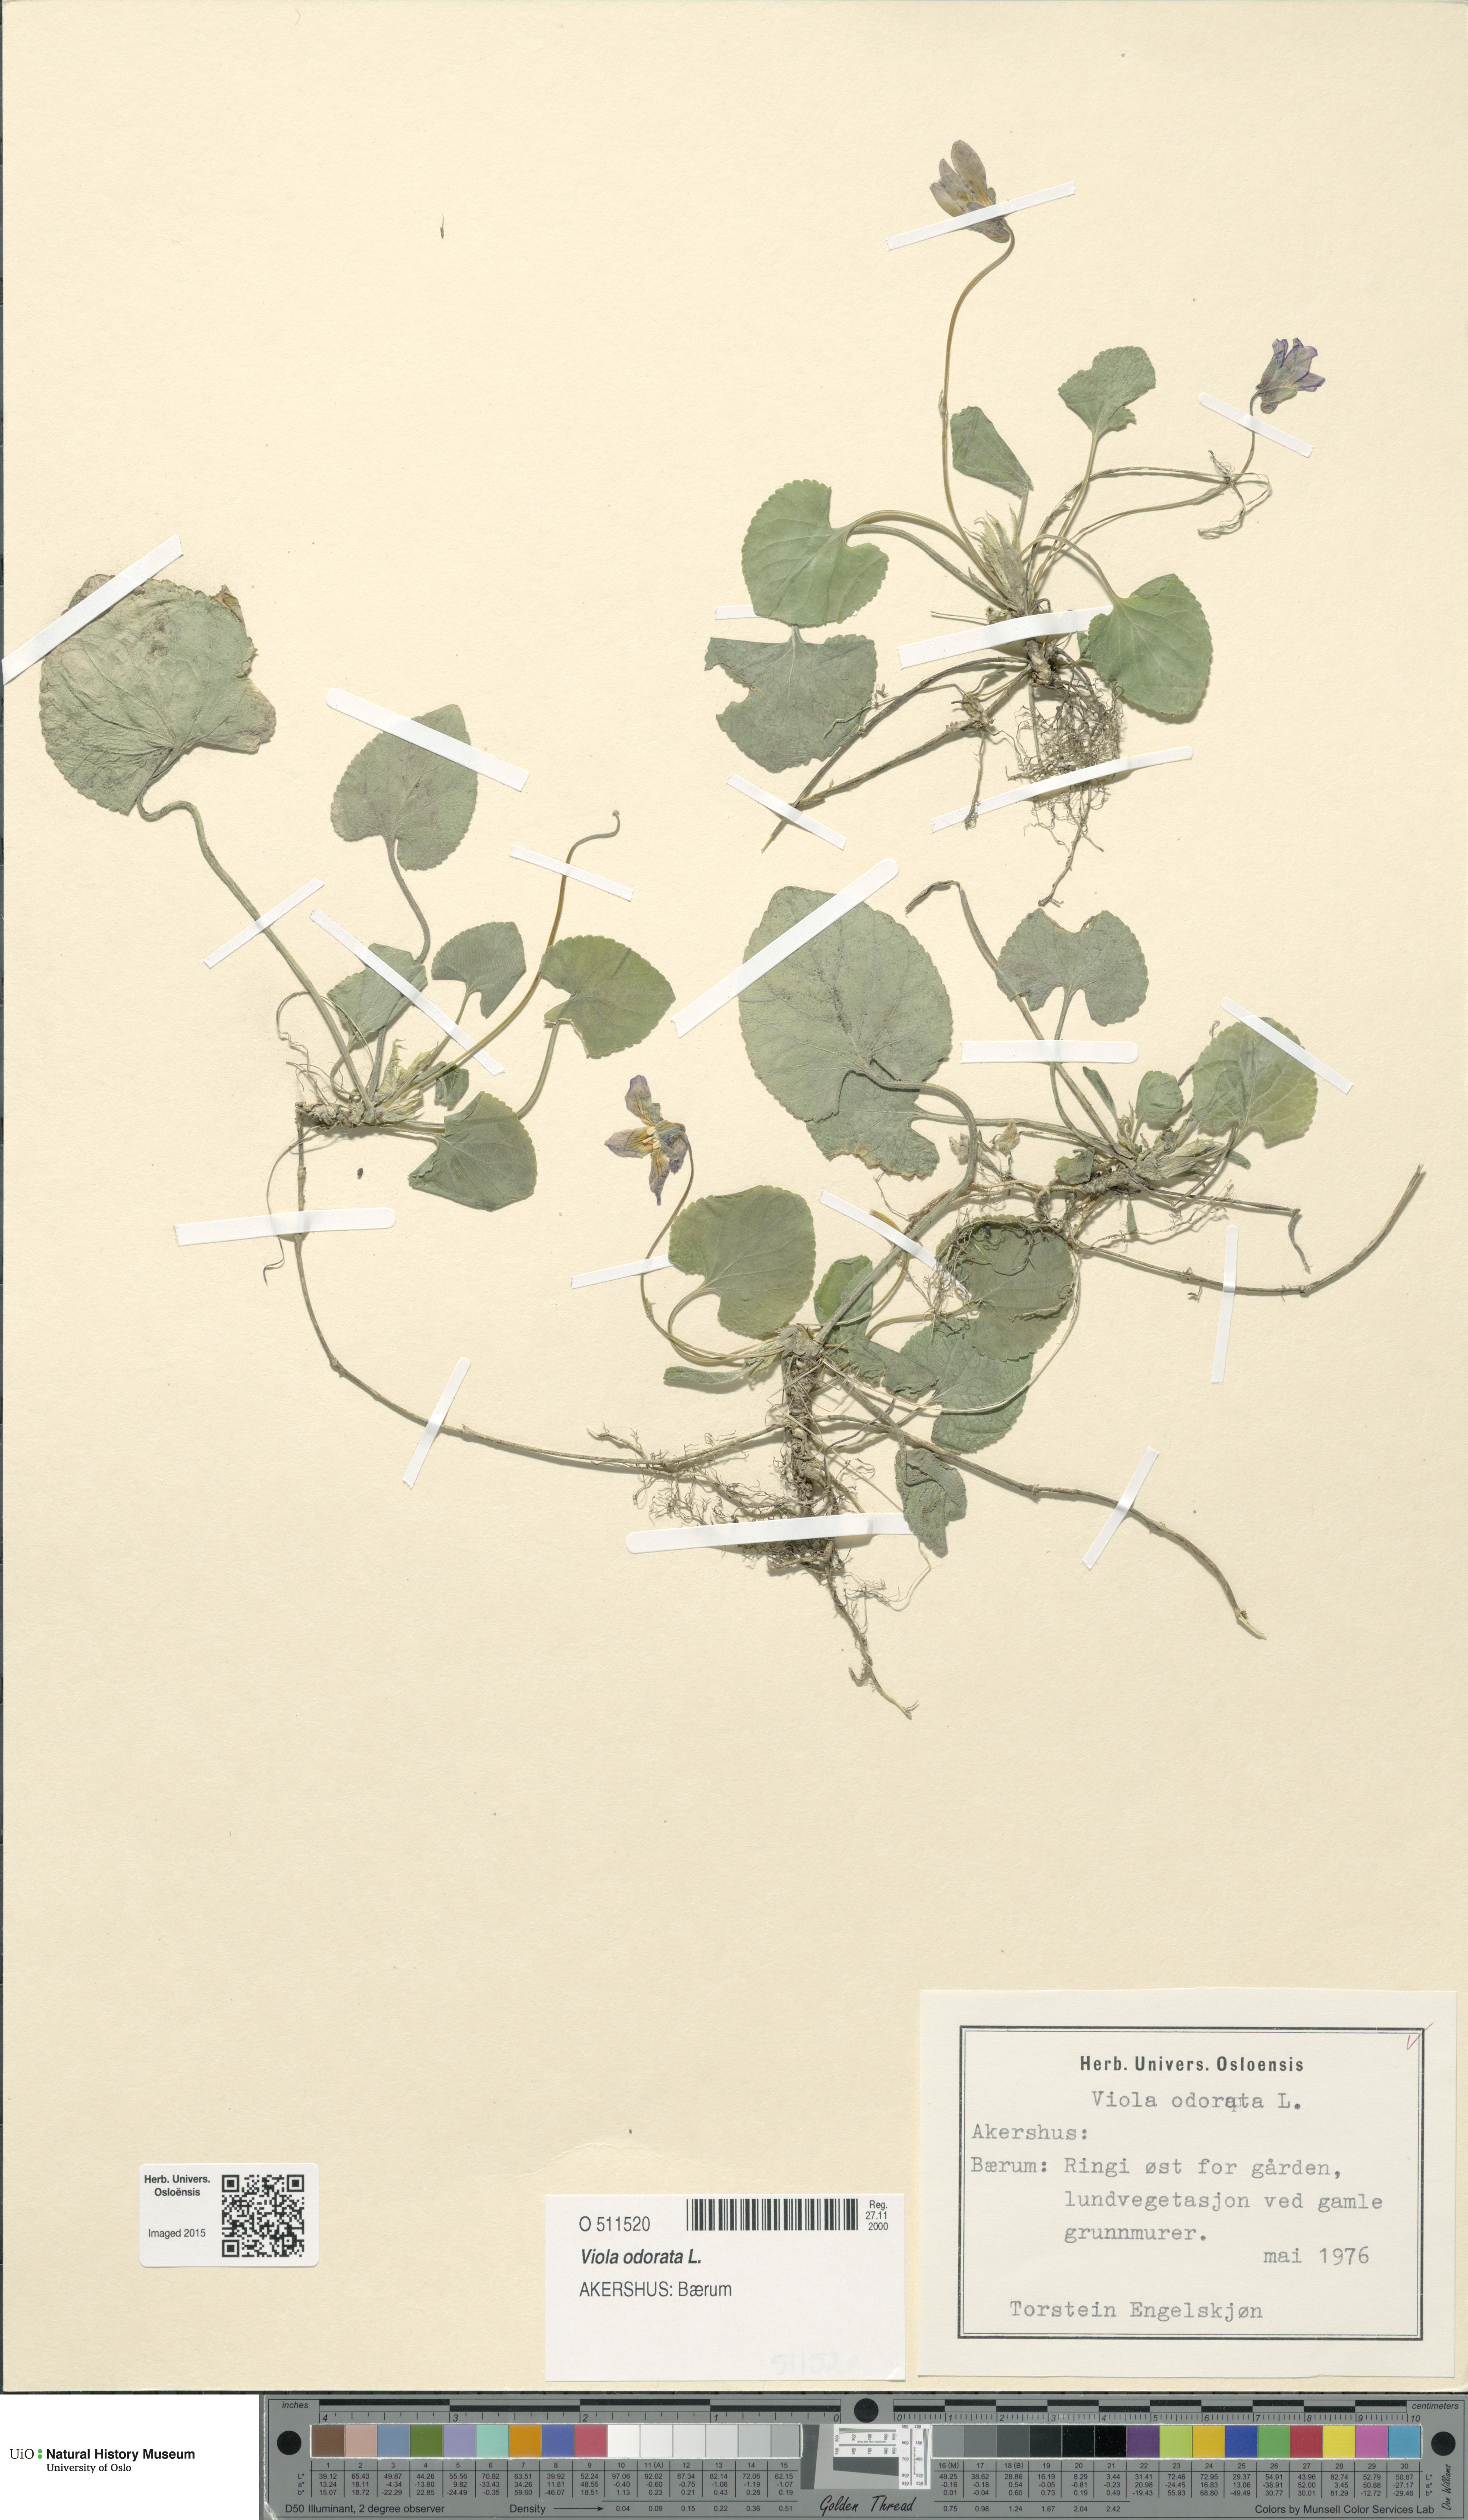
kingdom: Plantae
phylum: Tracheophyta
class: Magnoliopsida
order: Malpighiales
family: Violaceae
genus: Viola
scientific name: Viola odorata
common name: Sweet violet
